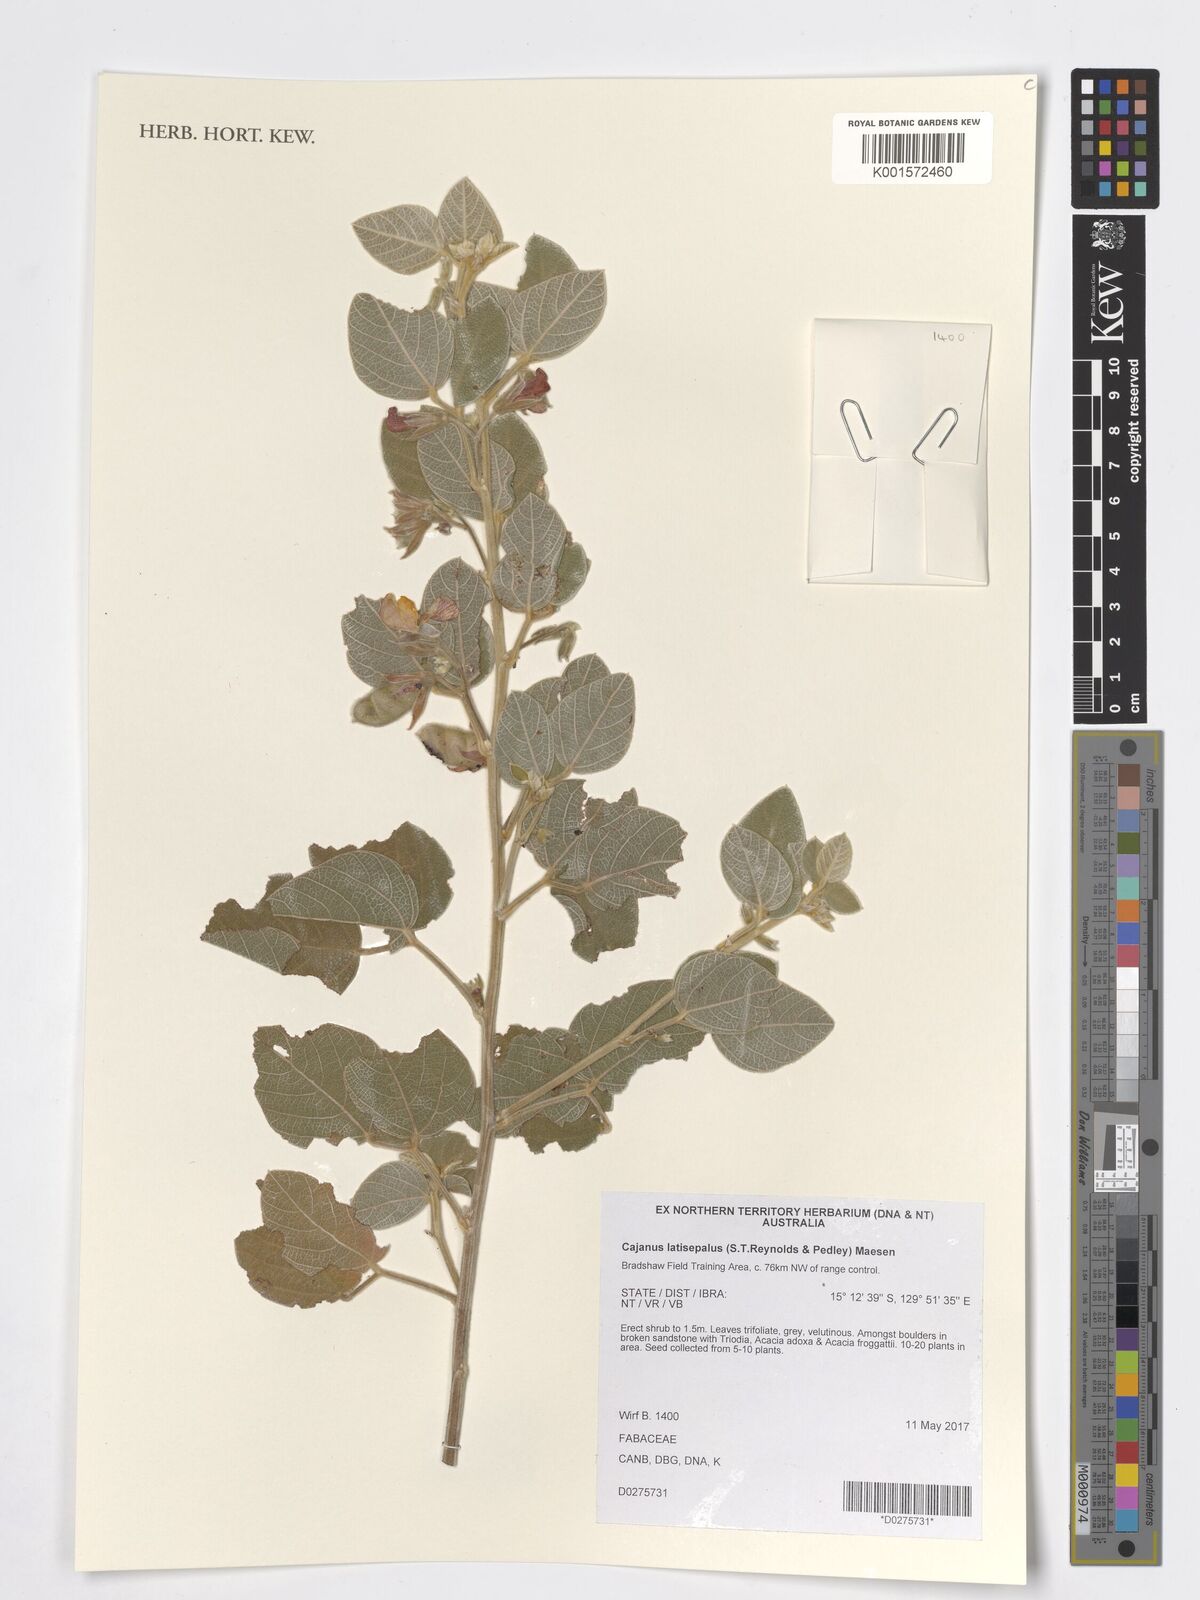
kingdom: Plantae
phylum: Tracheophyta
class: Magnoliopsida
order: Fabales
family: Fabaceae
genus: Cajanus
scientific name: Cajanus latisepalus
